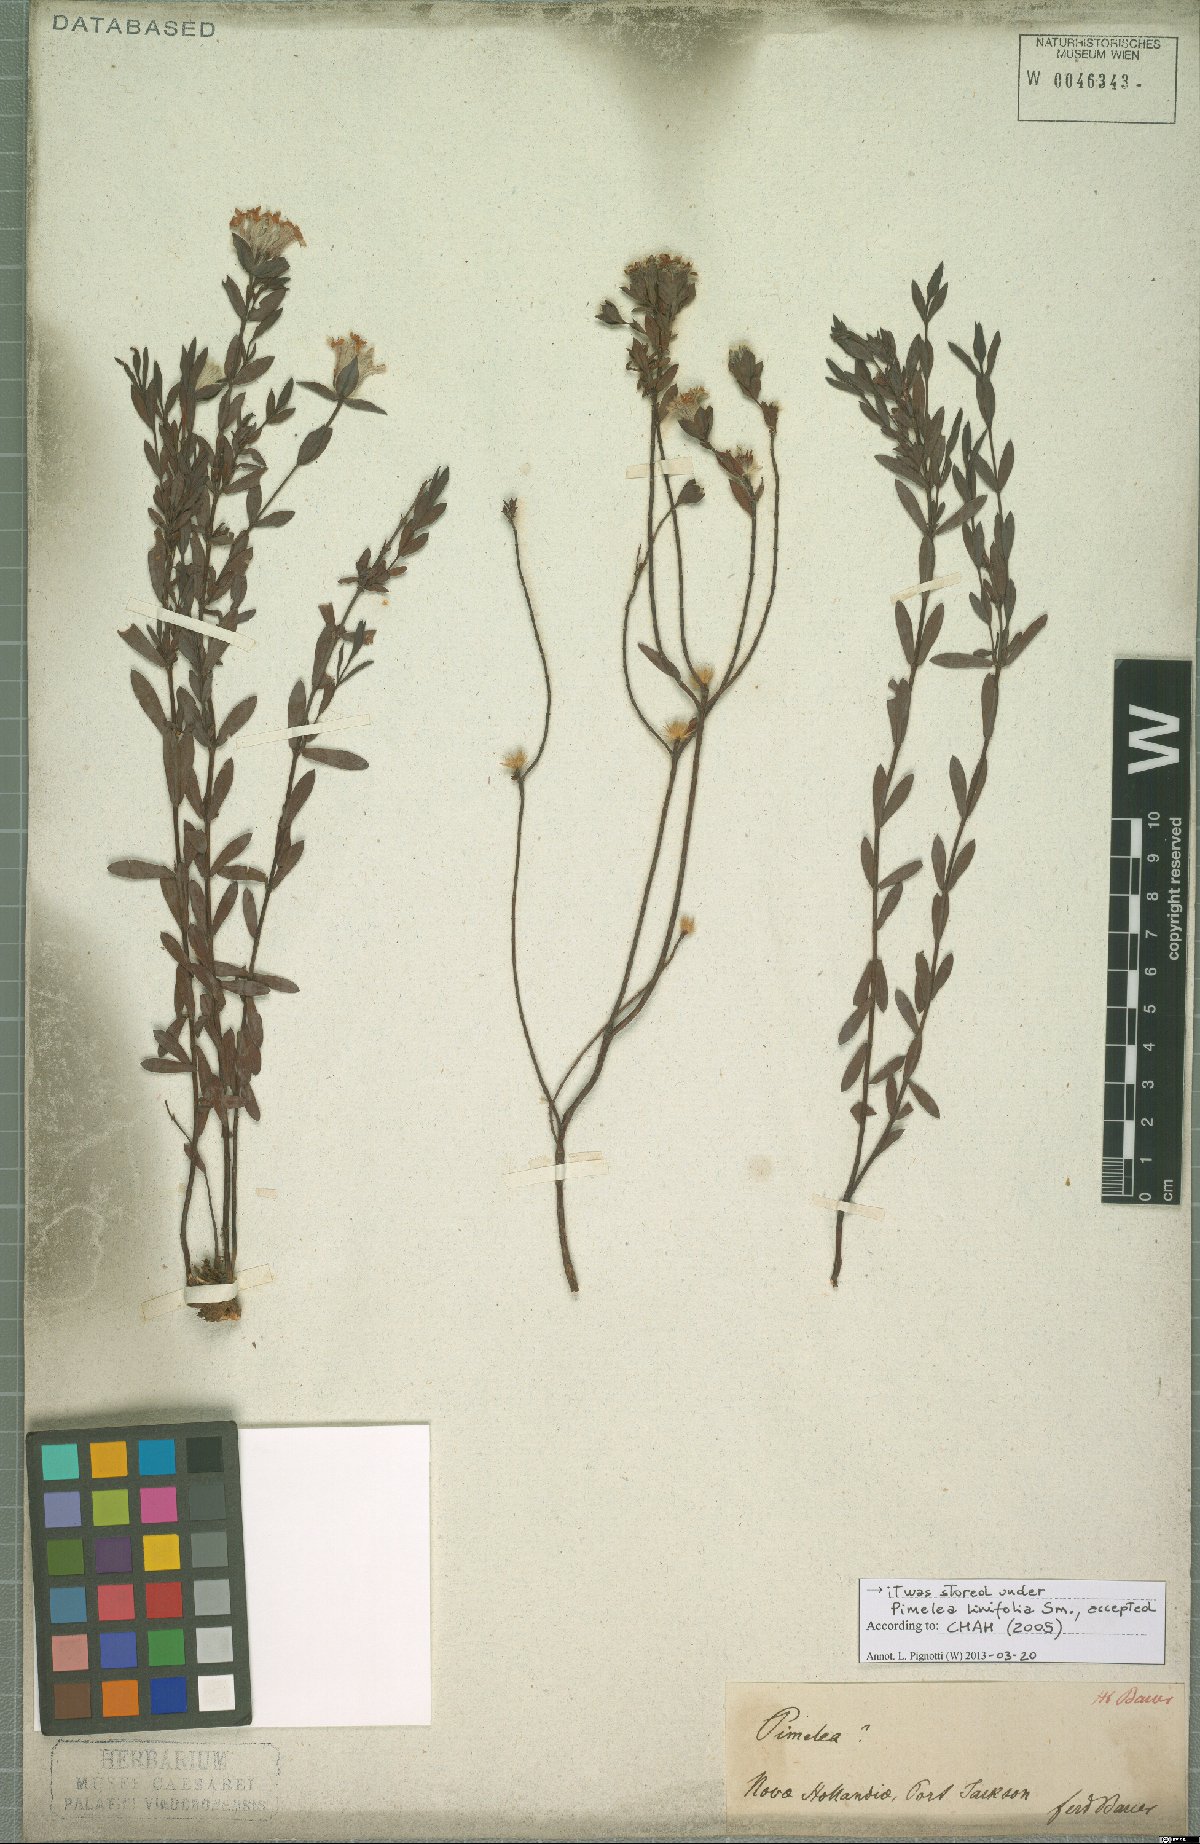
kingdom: Plantae
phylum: Tracheophyta
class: Magnoliopsida
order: Malvales
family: Thymelaeaceae
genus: Pimelea
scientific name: Pimelea linifolia
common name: Queen-of-the-bush
